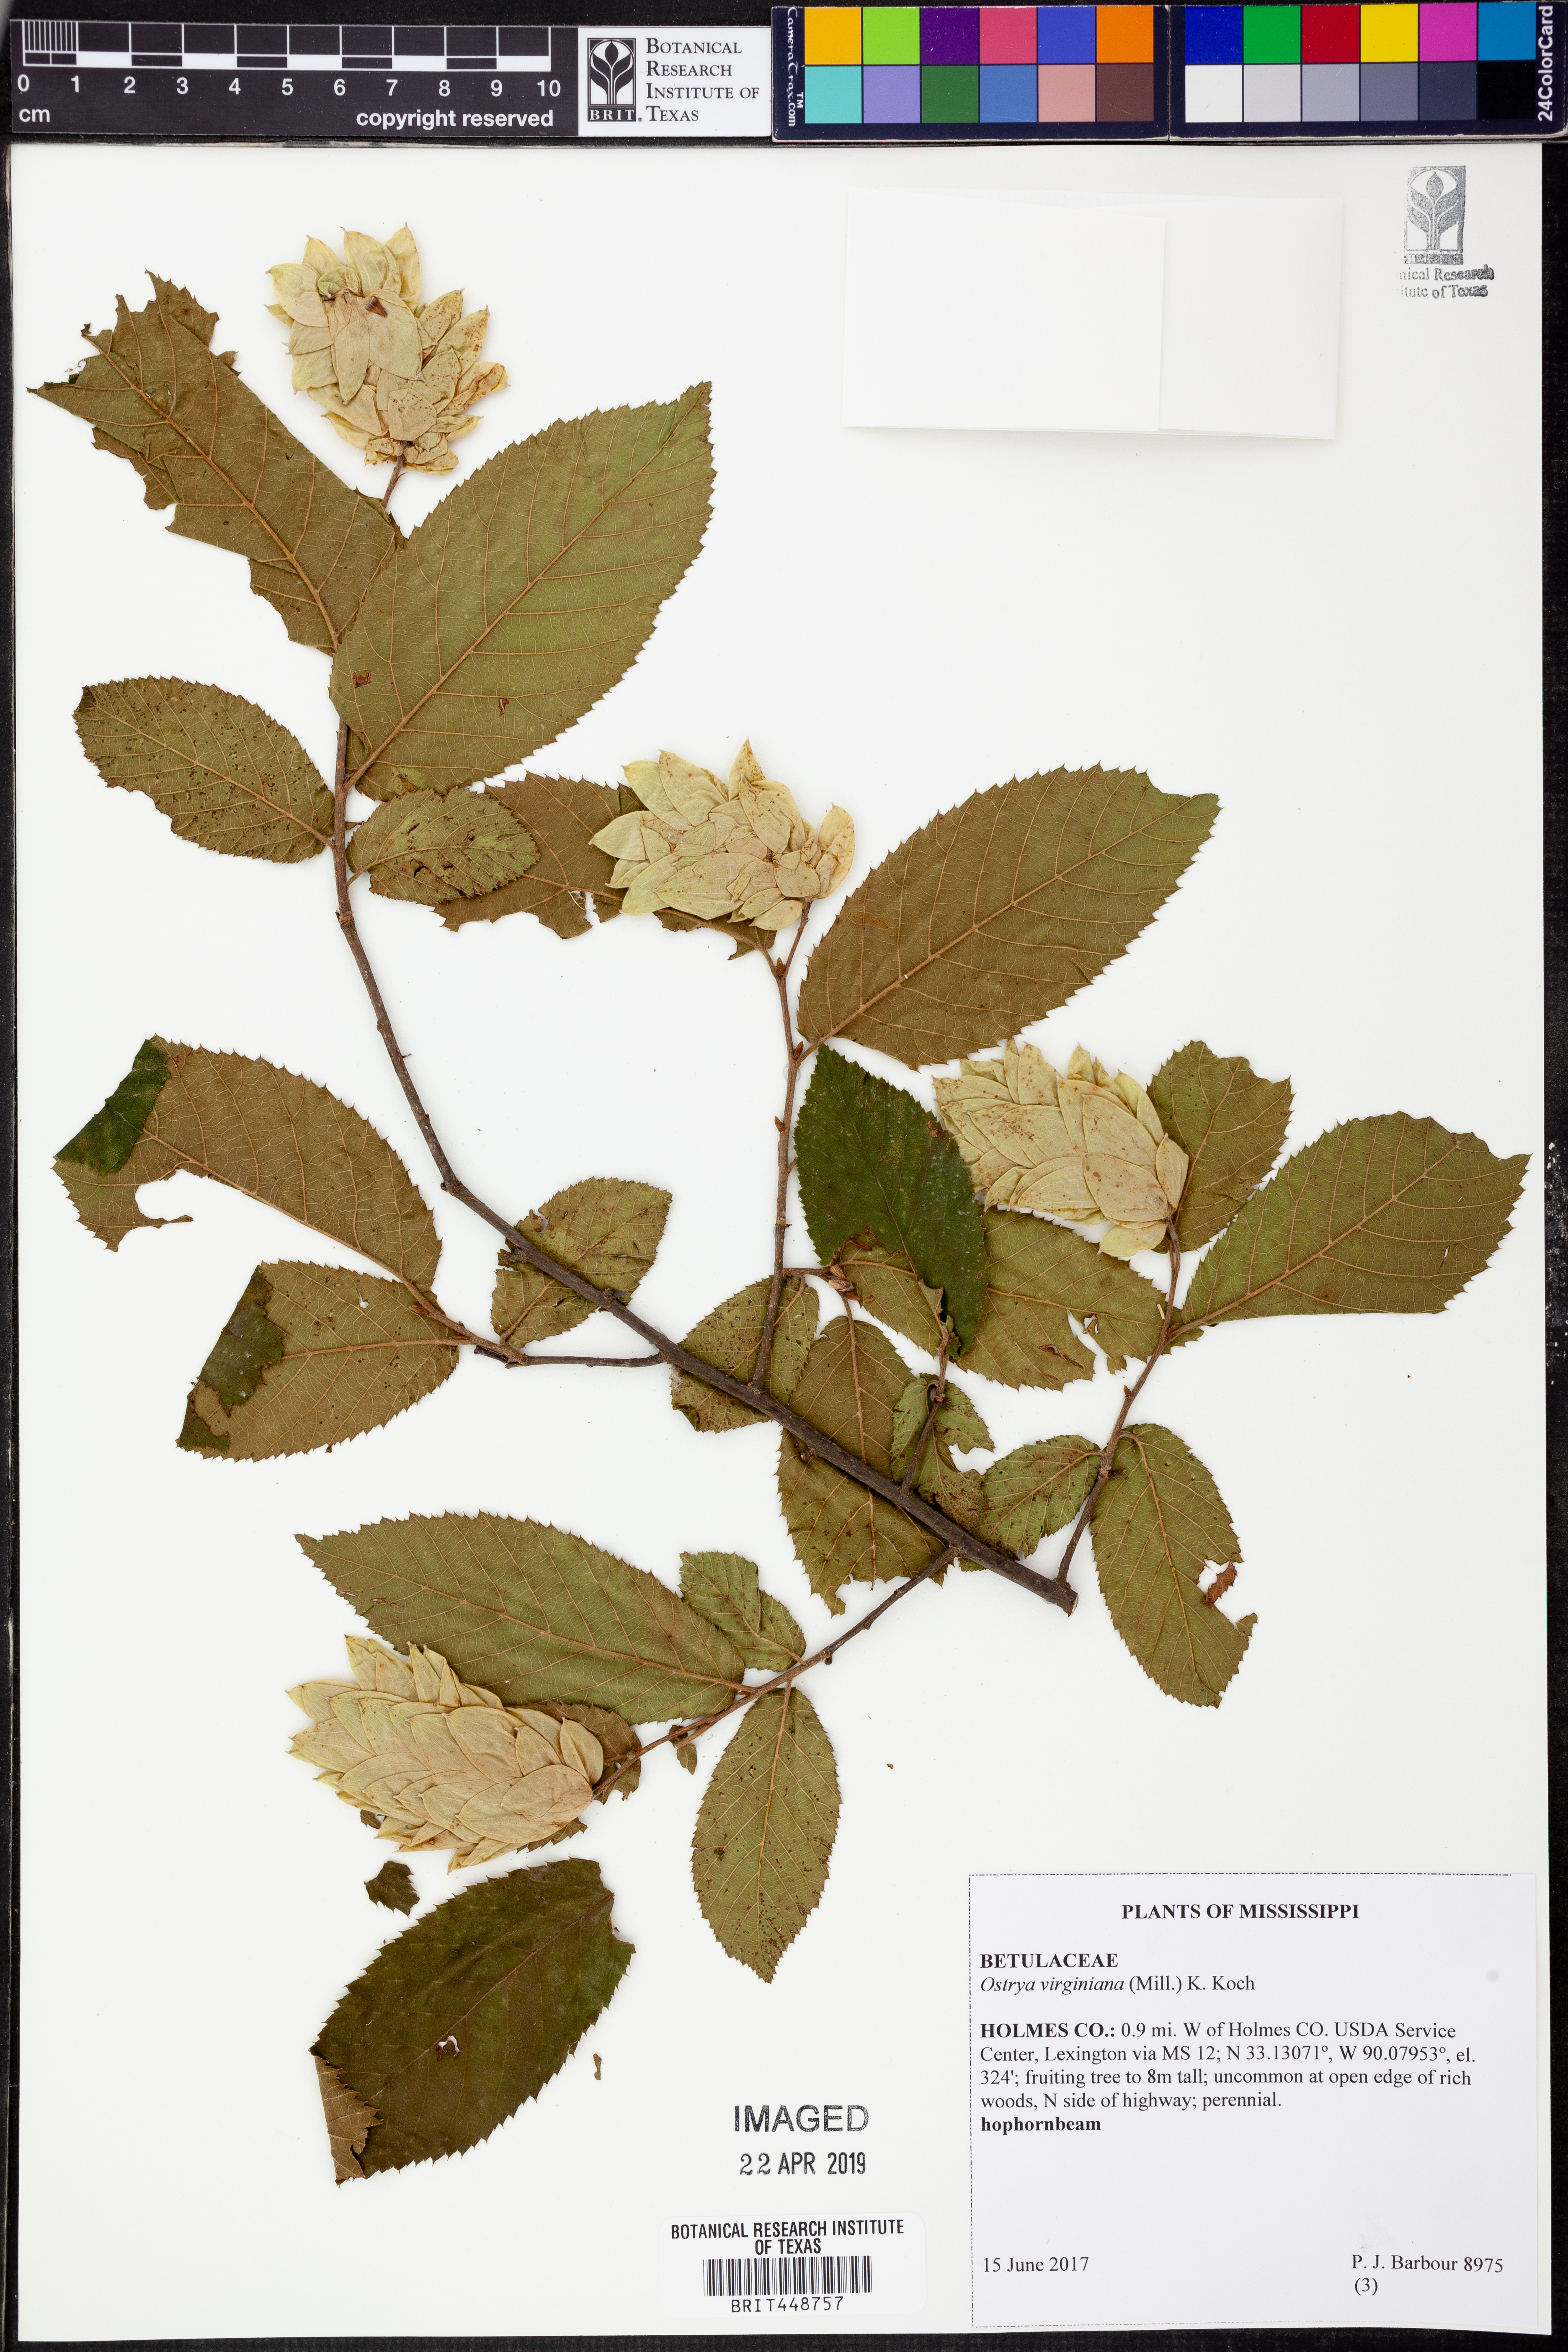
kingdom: Plantae
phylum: Tracheophyta
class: Magnoliopsida
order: Fagales
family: Betulaceae
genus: Ostrya
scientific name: Ostrya virginiana
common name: Ironwood
